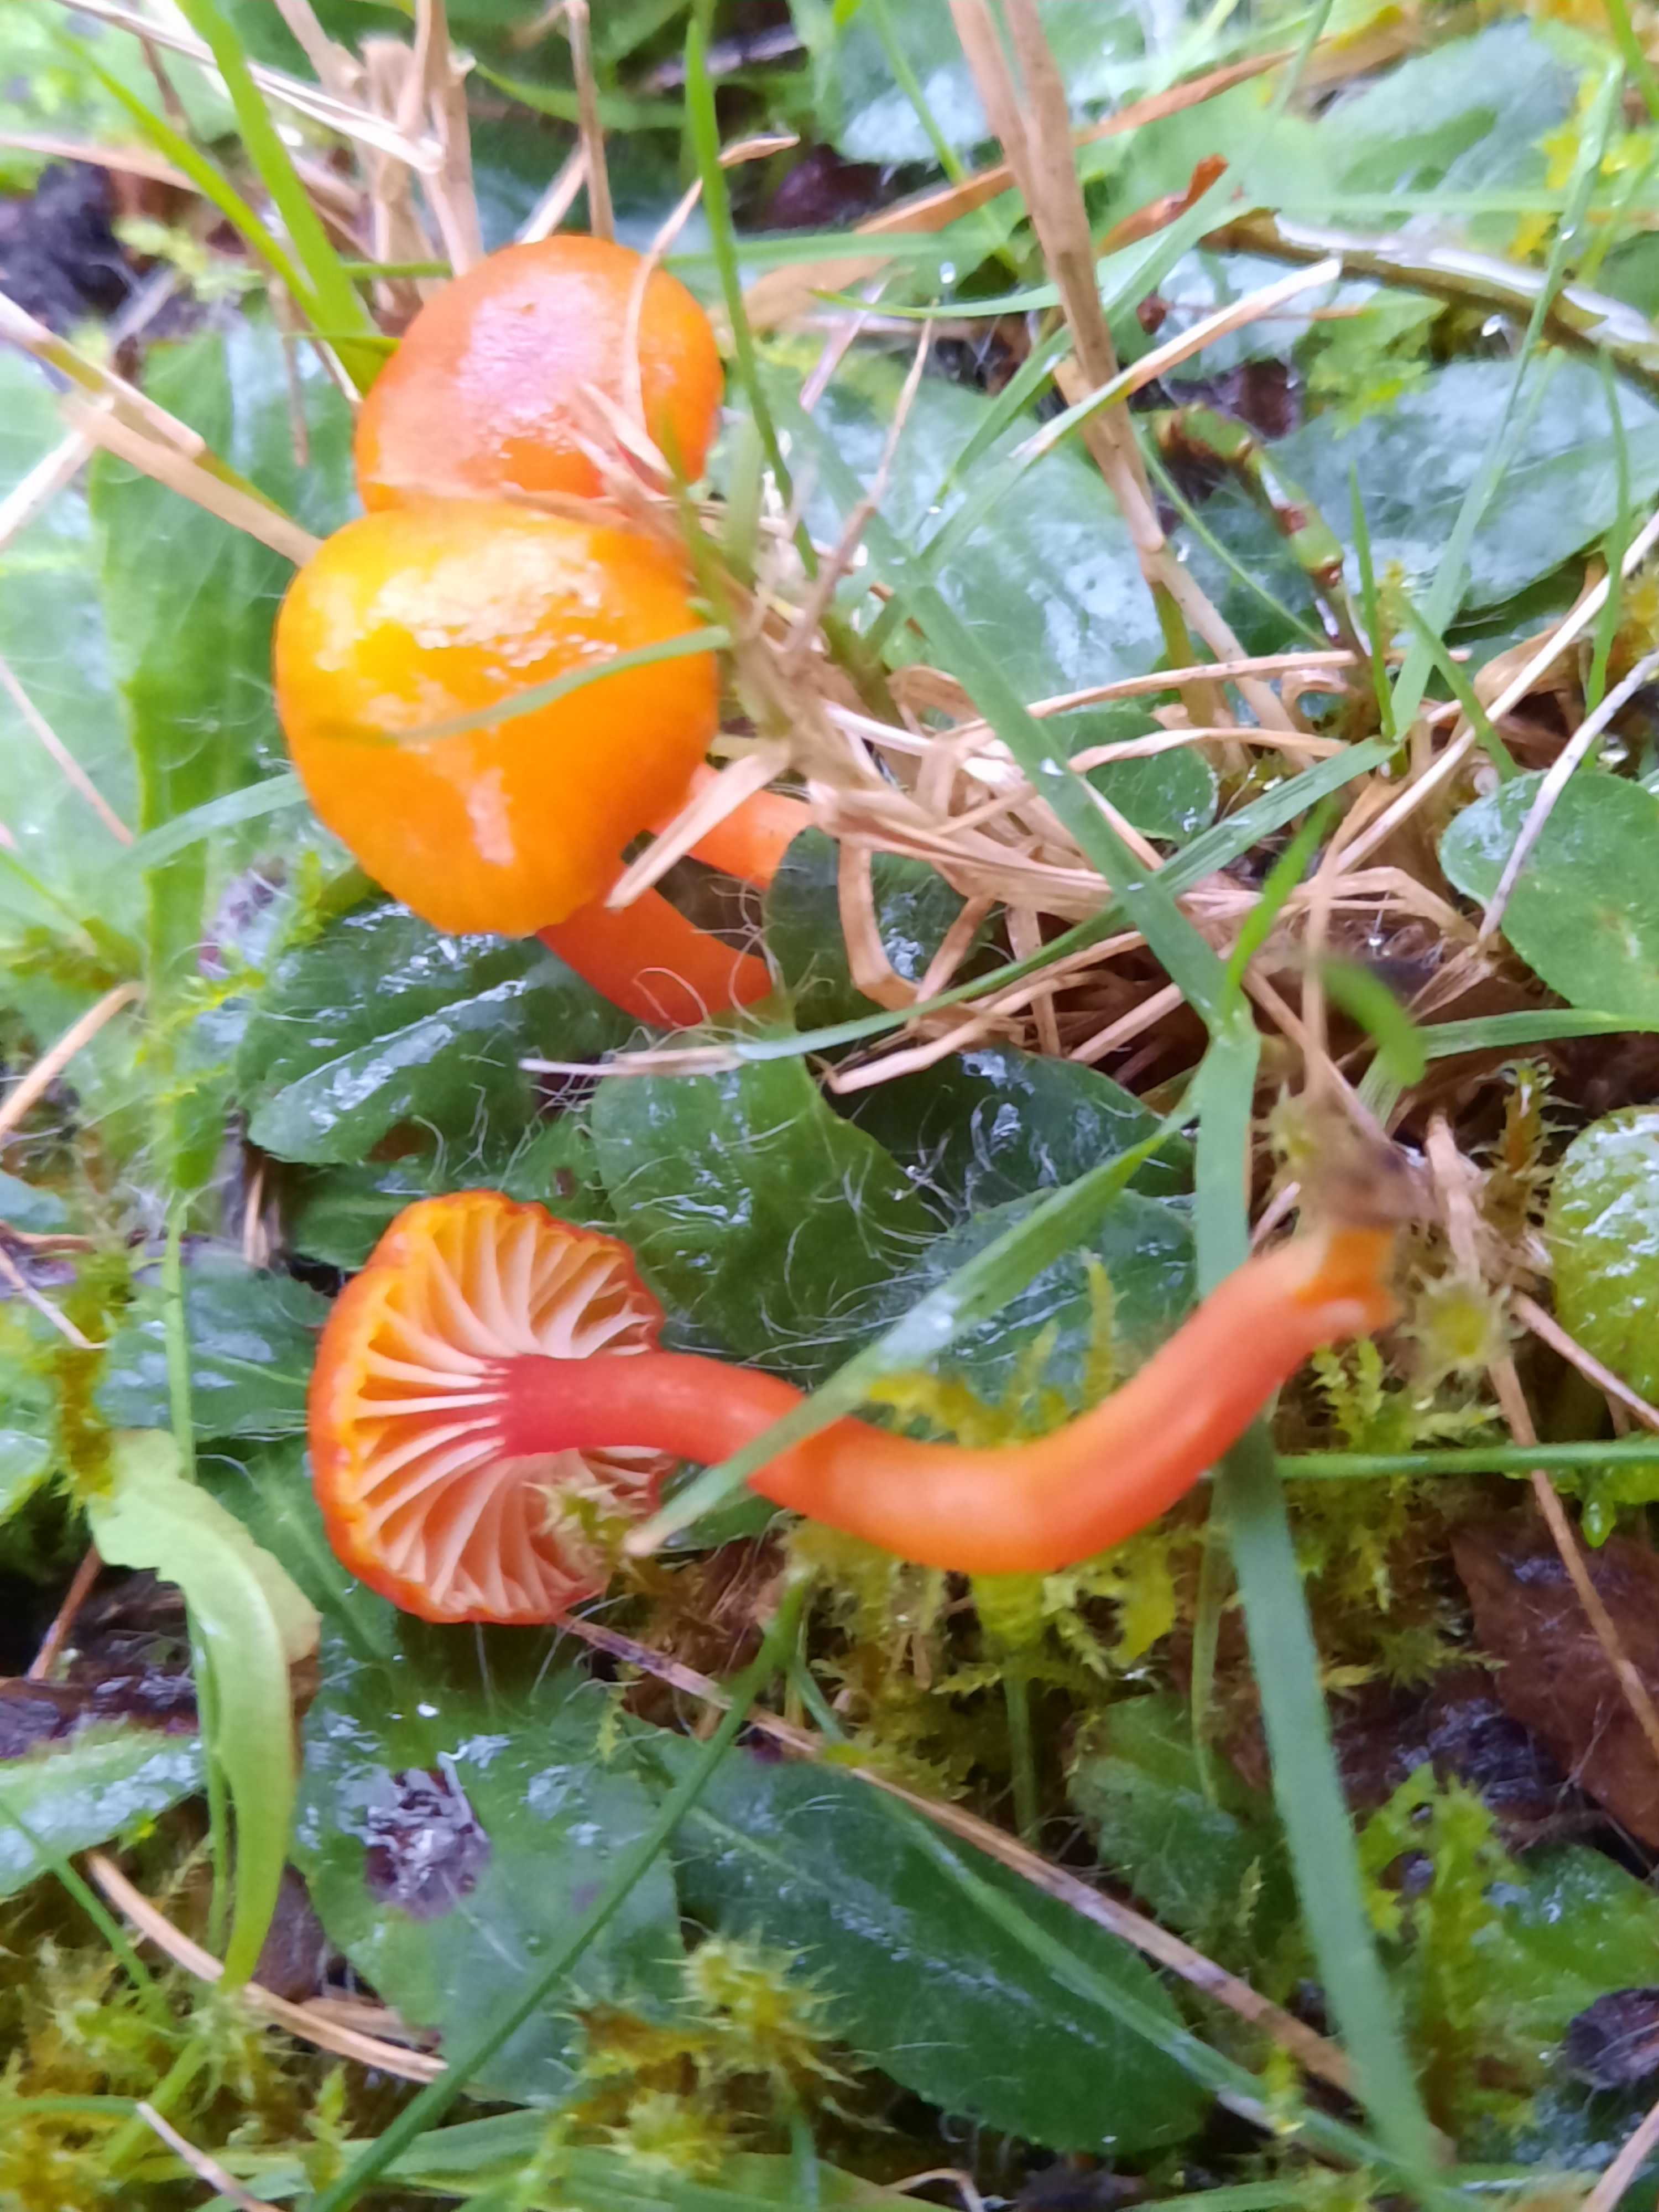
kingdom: Fungi
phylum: Basidiomycota
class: Agaricomycetes
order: Agaricales
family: Hygrophoraceae
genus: Hygrocybe
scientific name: Hygrocybe insipida
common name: liden vokshat
